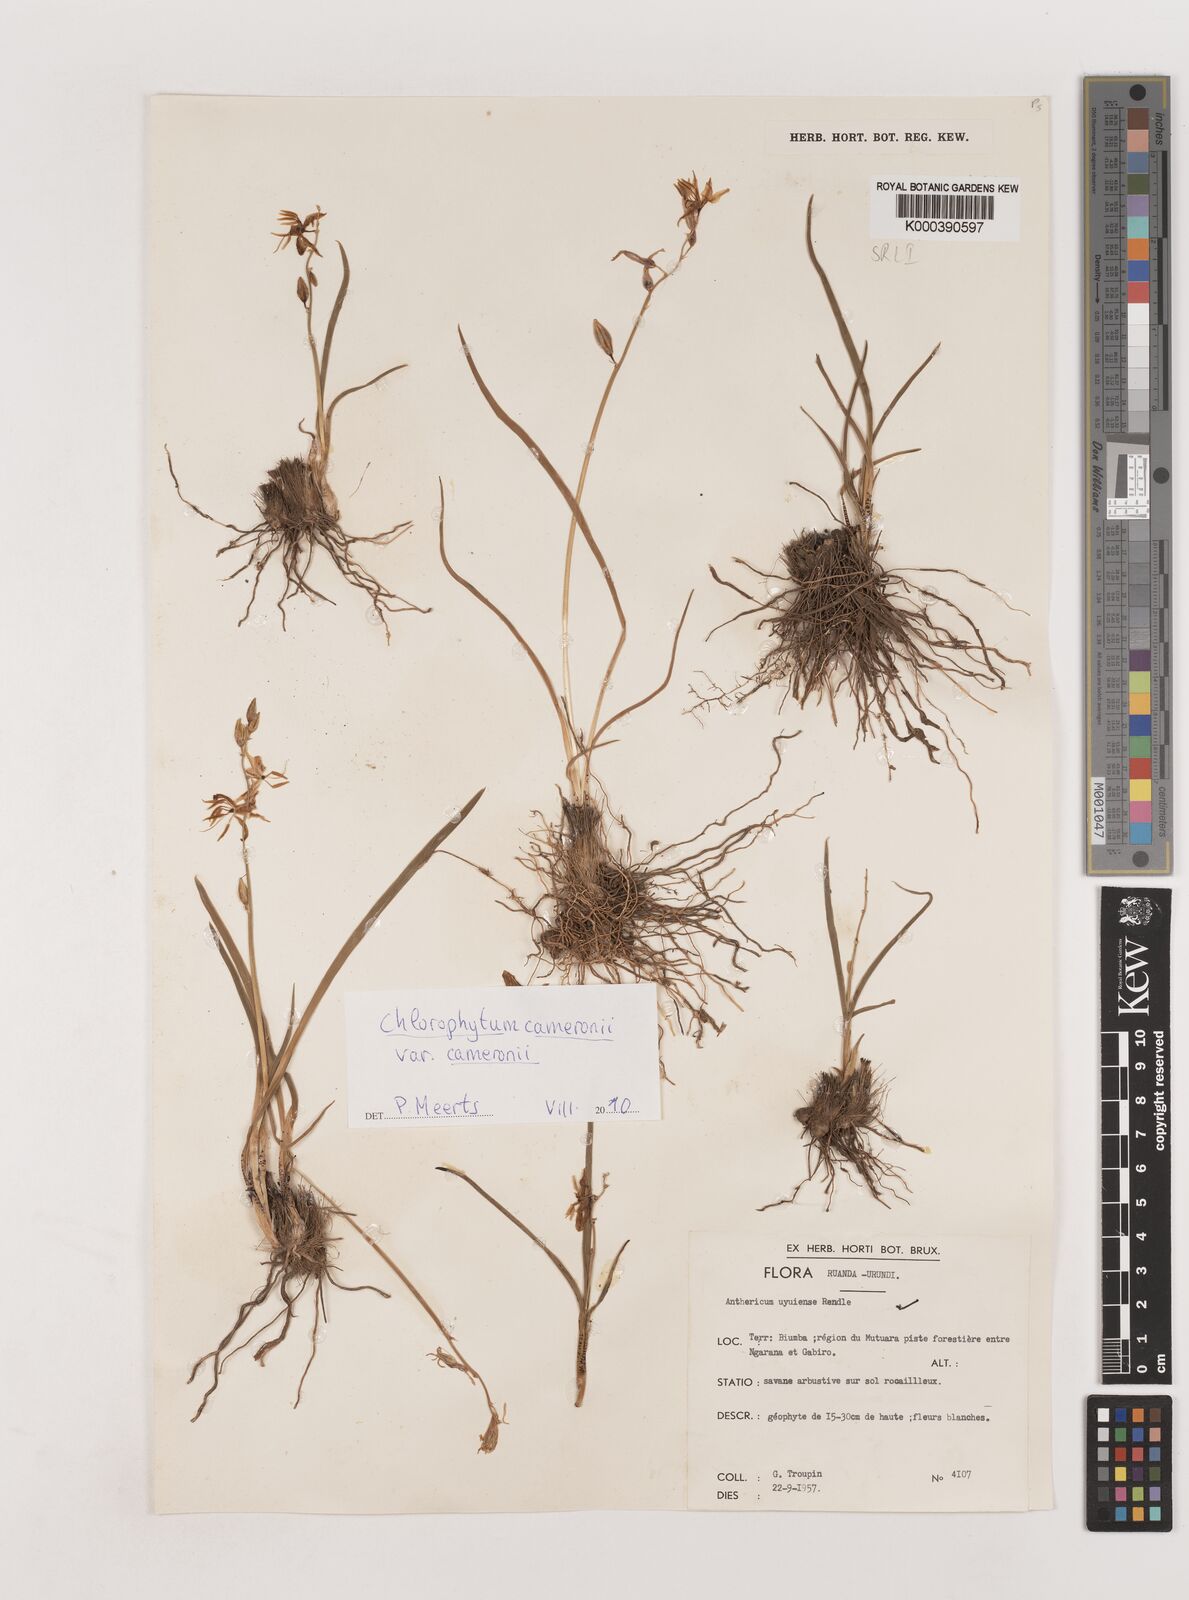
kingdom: Plantae
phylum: Tracheophyta
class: Liliopsida
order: Asparagales
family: Asparagaceae
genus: Chlorophytum
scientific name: Chlorophytum cameronii
